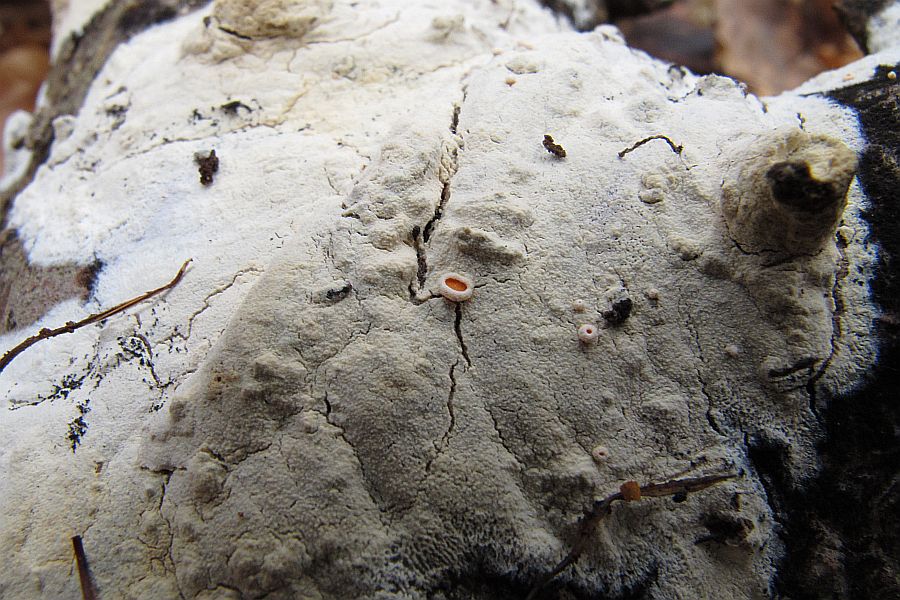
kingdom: Fungi
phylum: Ascomycota
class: Leotiomycetes
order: Helotiales
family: Lachnaceae
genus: Lachnellula
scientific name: Lachnellula occidentalis
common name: Larch disco
